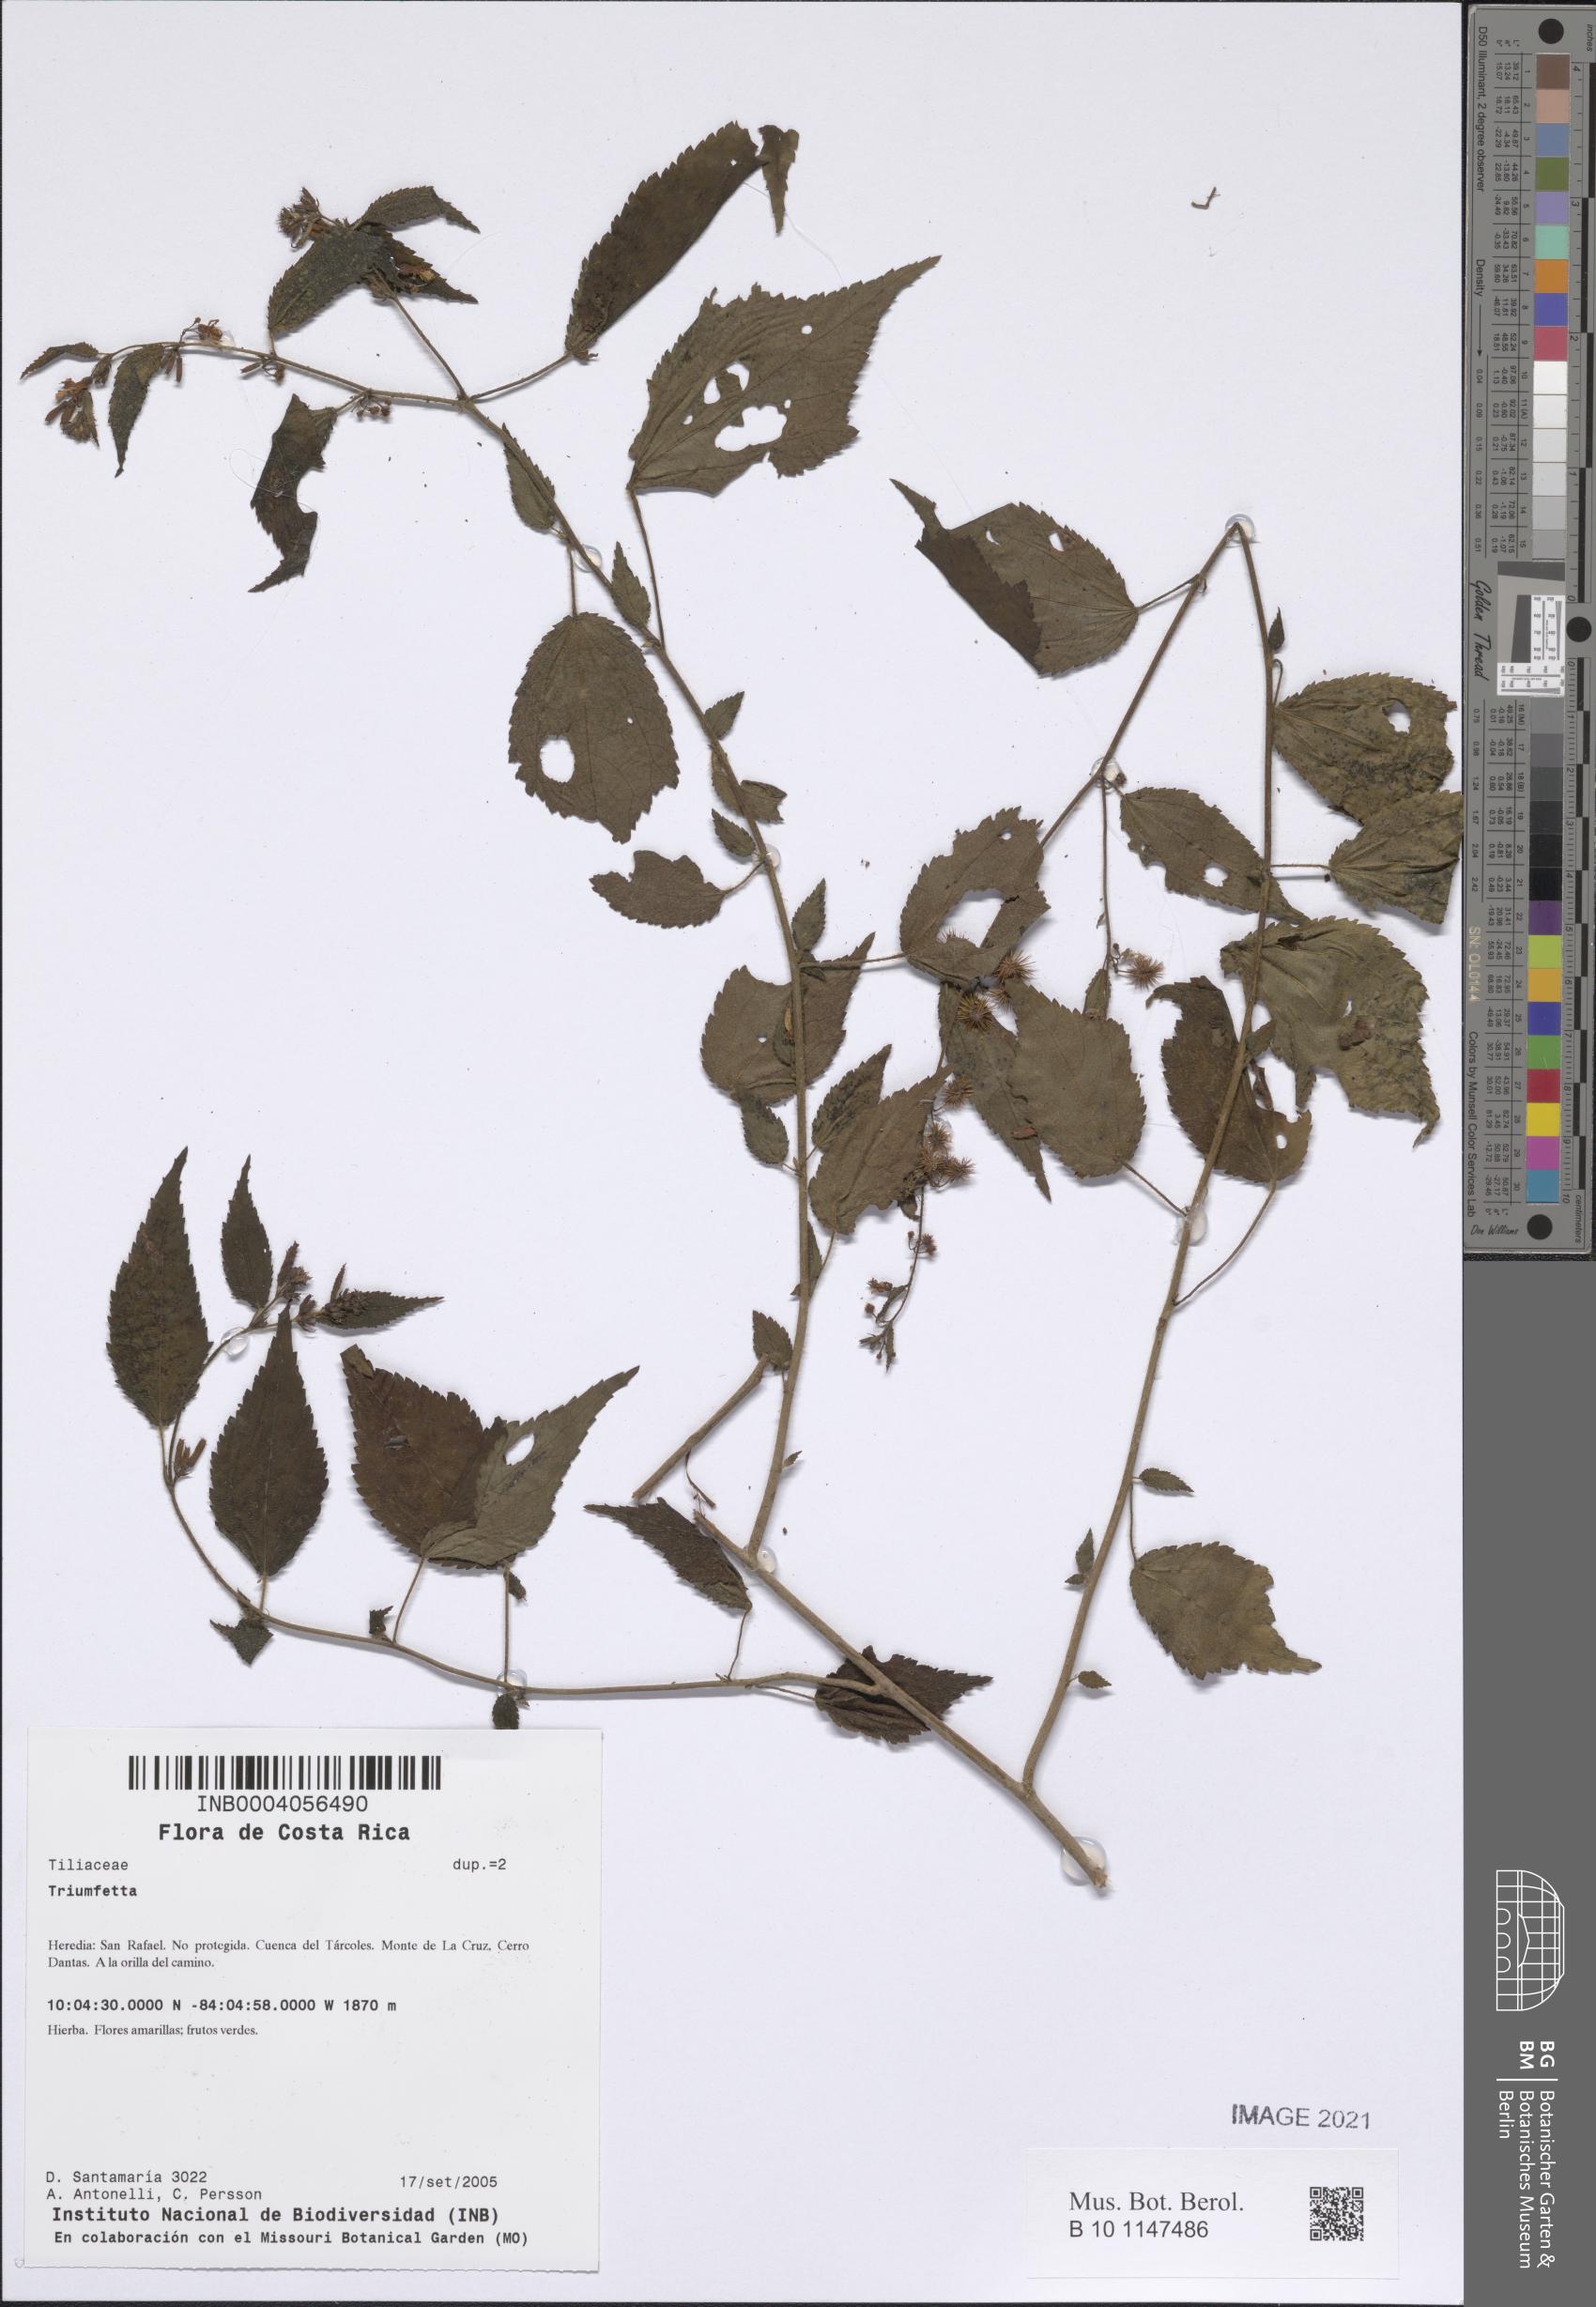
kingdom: Plantae
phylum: Tracheophyta
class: Magnoliopsida
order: Malvales
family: Malvaceae
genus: Triumfetta
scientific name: Triumfetta
